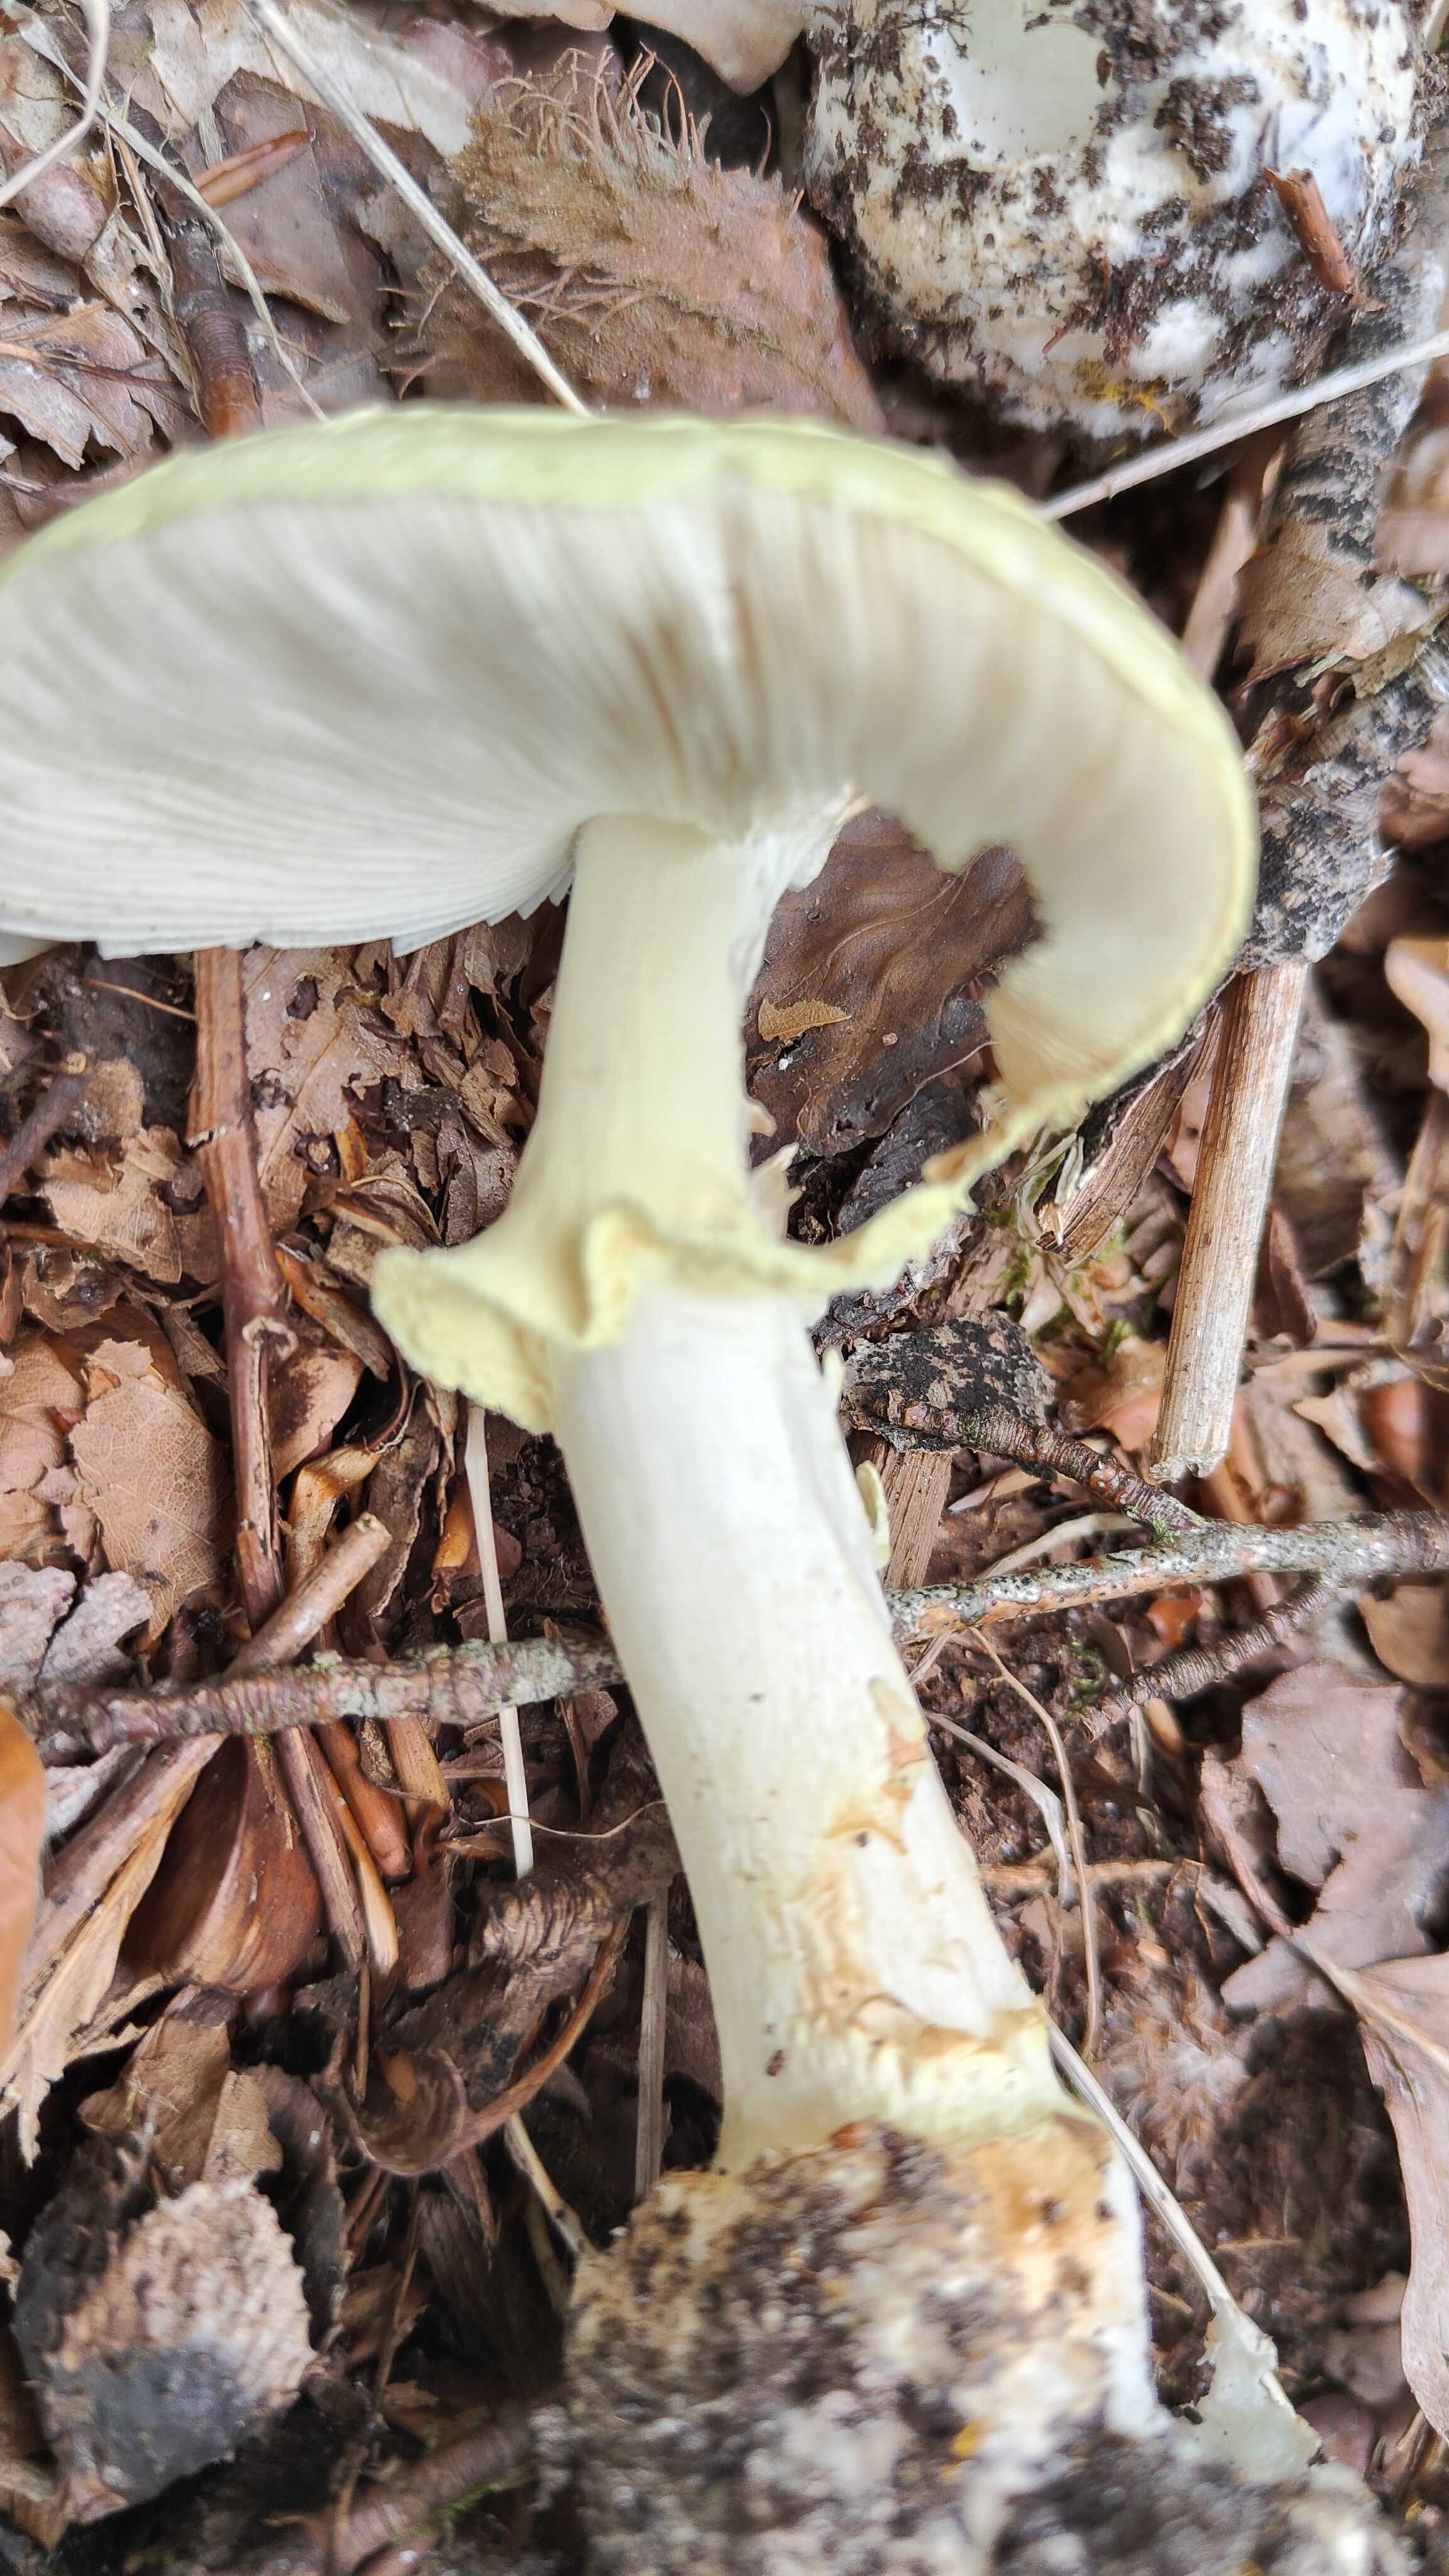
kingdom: Fungi
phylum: Basidiomycota
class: Agaricomycetes
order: Agaricales
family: Amanitaceae
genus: Amanita
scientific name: Amanita citrina
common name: kugleknoldet fluesvamp
